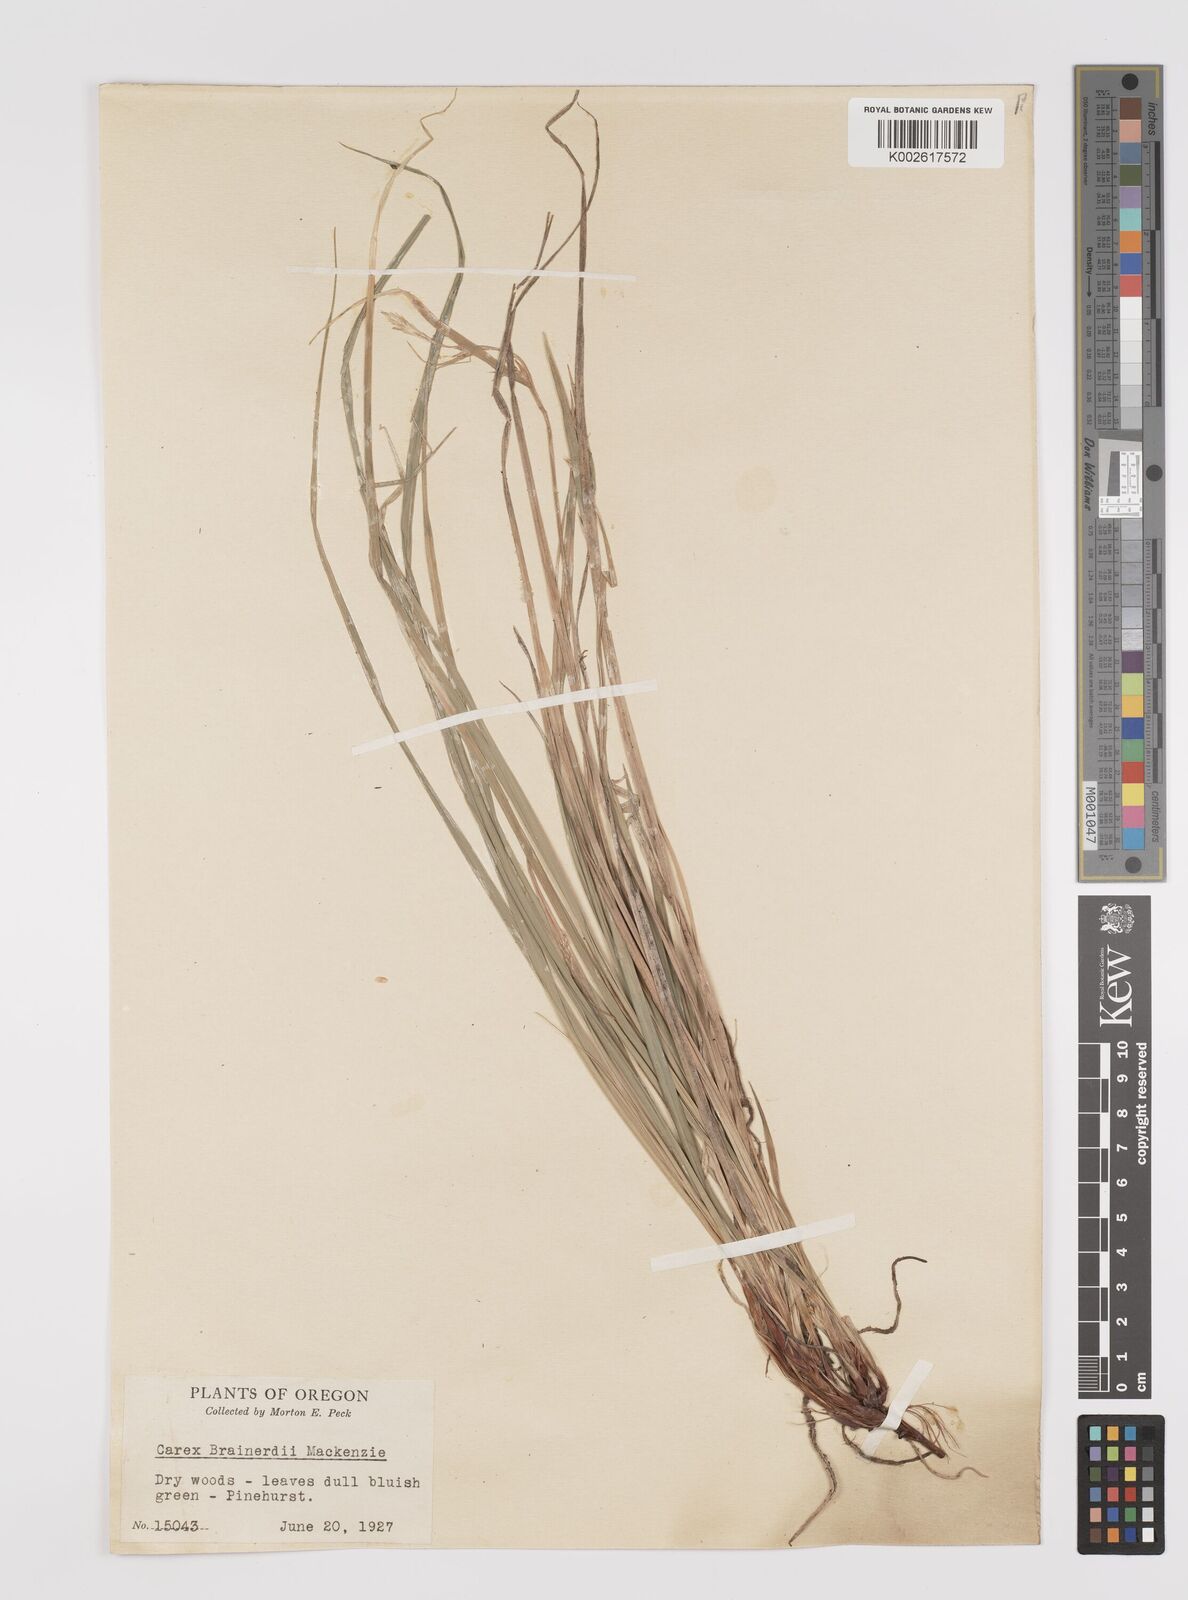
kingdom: Plantae
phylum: Tracheophyta
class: Liliopsida
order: Poales
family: Cyperaceae
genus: Carex
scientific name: Carex brainerdii
